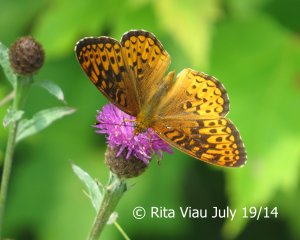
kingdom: Animalia
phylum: Arthropoda
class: Insecta
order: Lepidoptera
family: Nymphalidae
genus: Speyeria
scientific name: Speyeria atlantis
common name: Atlantis Fritillary
